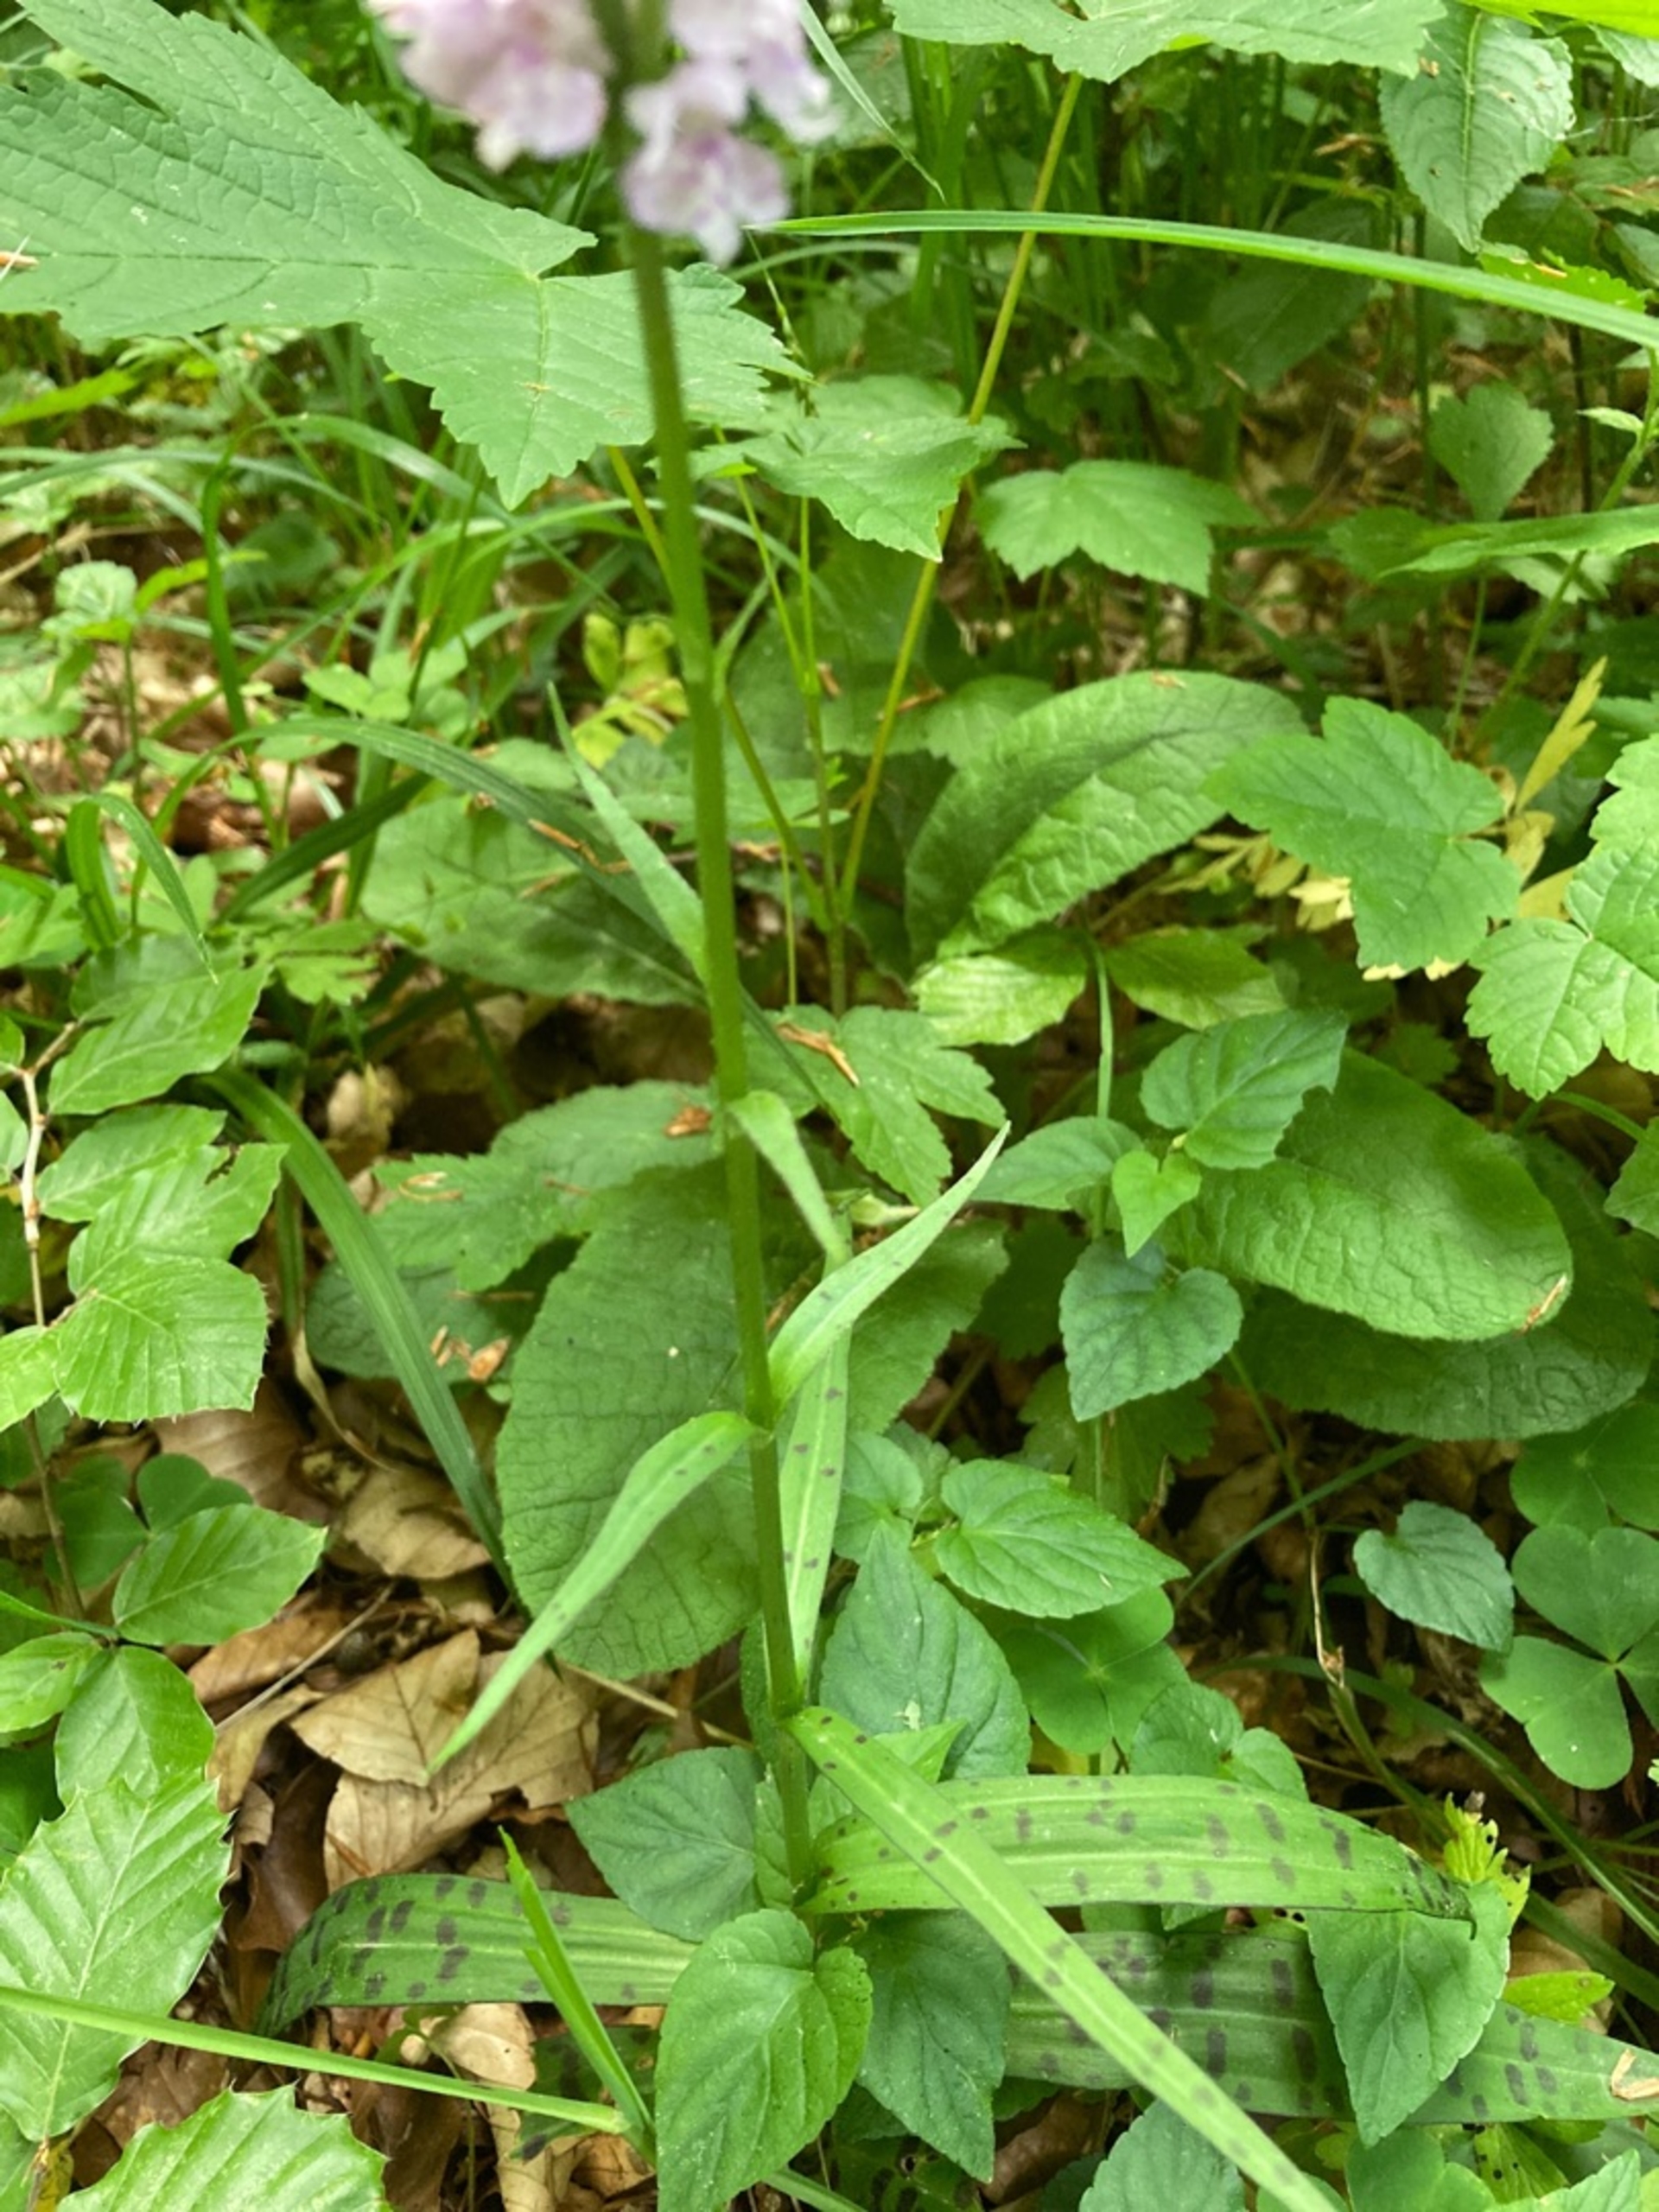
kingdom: Plantae
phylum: Tracheophyta
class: Liliopsida
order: Asparagales
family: Orchidaceae
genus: Dactylorhiza
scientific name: Dactylorhiza maculata
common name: Skov-gøgeurt
